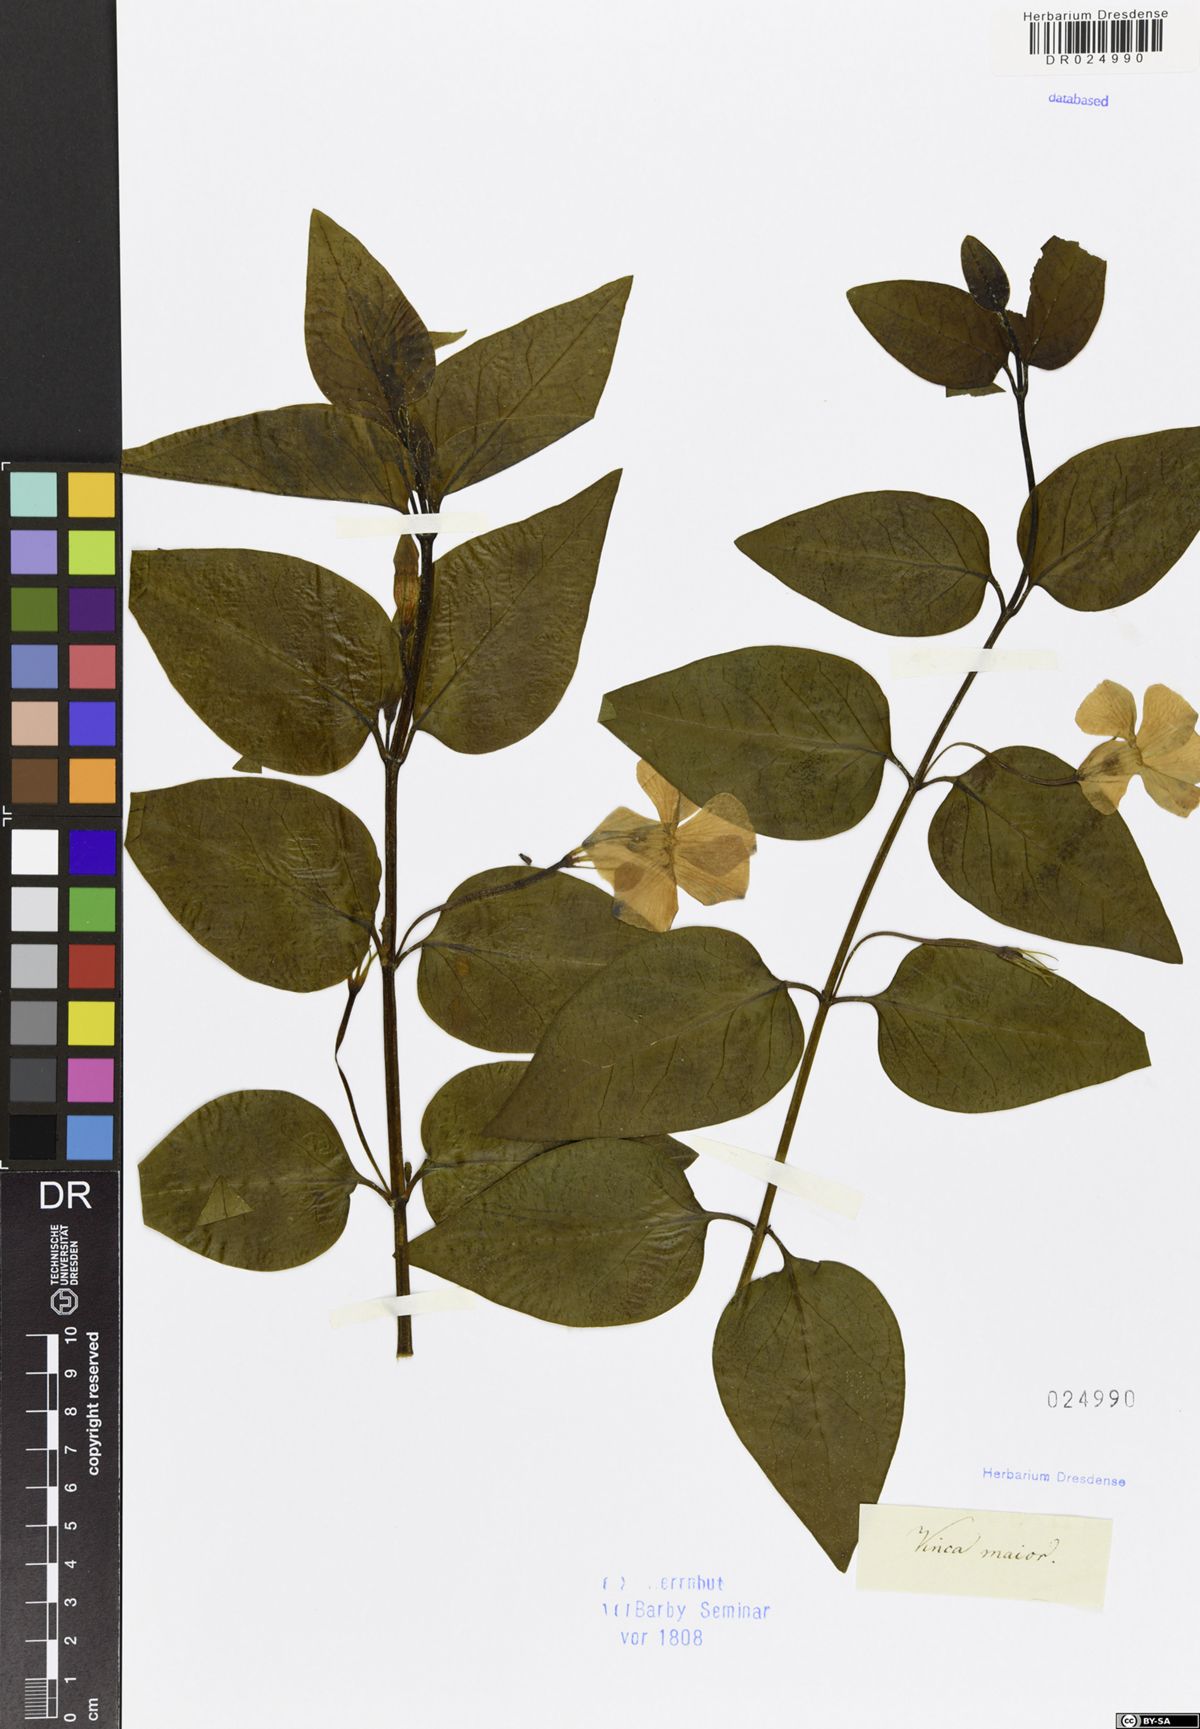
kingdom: Plantae
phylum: Tracheophyta
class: Magnoliopsida
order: Gentianales
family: Apocynaceae
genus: Vinca
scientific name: Vinca major
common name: Greater periwinkle
